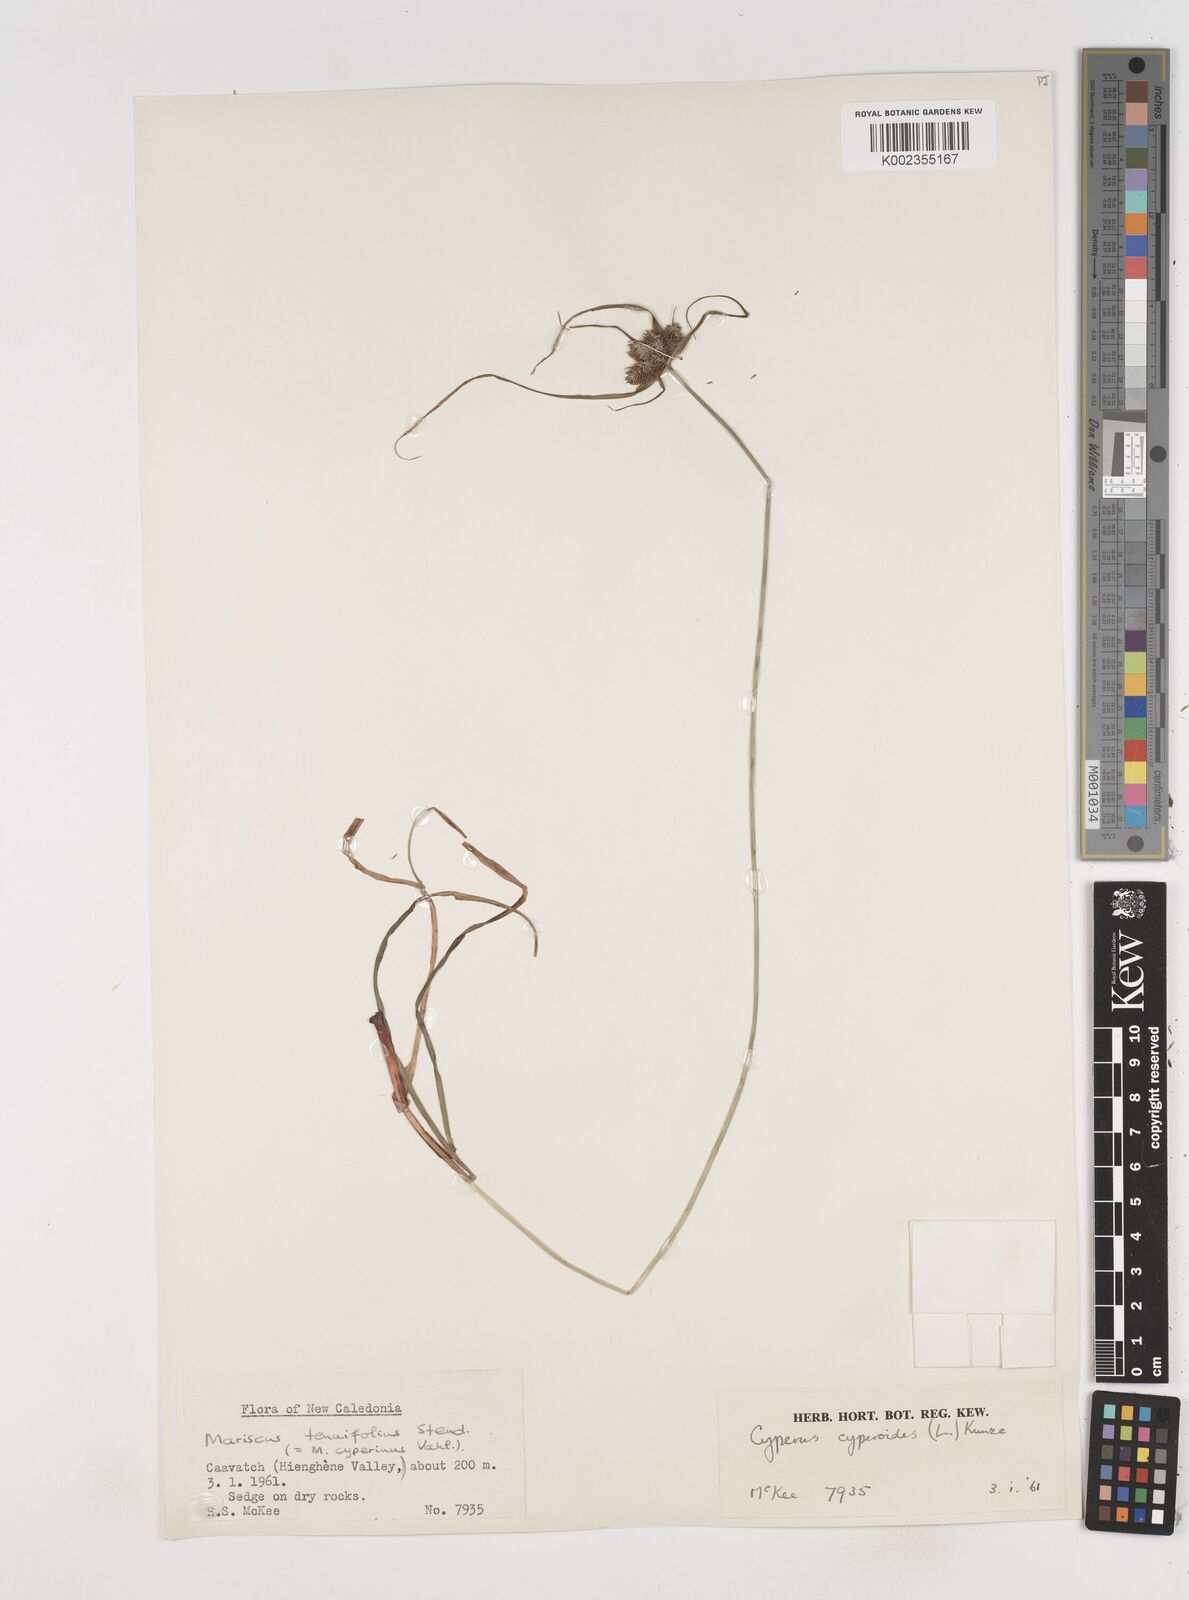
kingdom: Plantae
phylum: Tracheophyta
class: Liliopsida
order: Poales
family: Cyperaceae
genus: Cyperus
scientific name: Cyperus cyperoides
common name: Pacific island flat sedge
